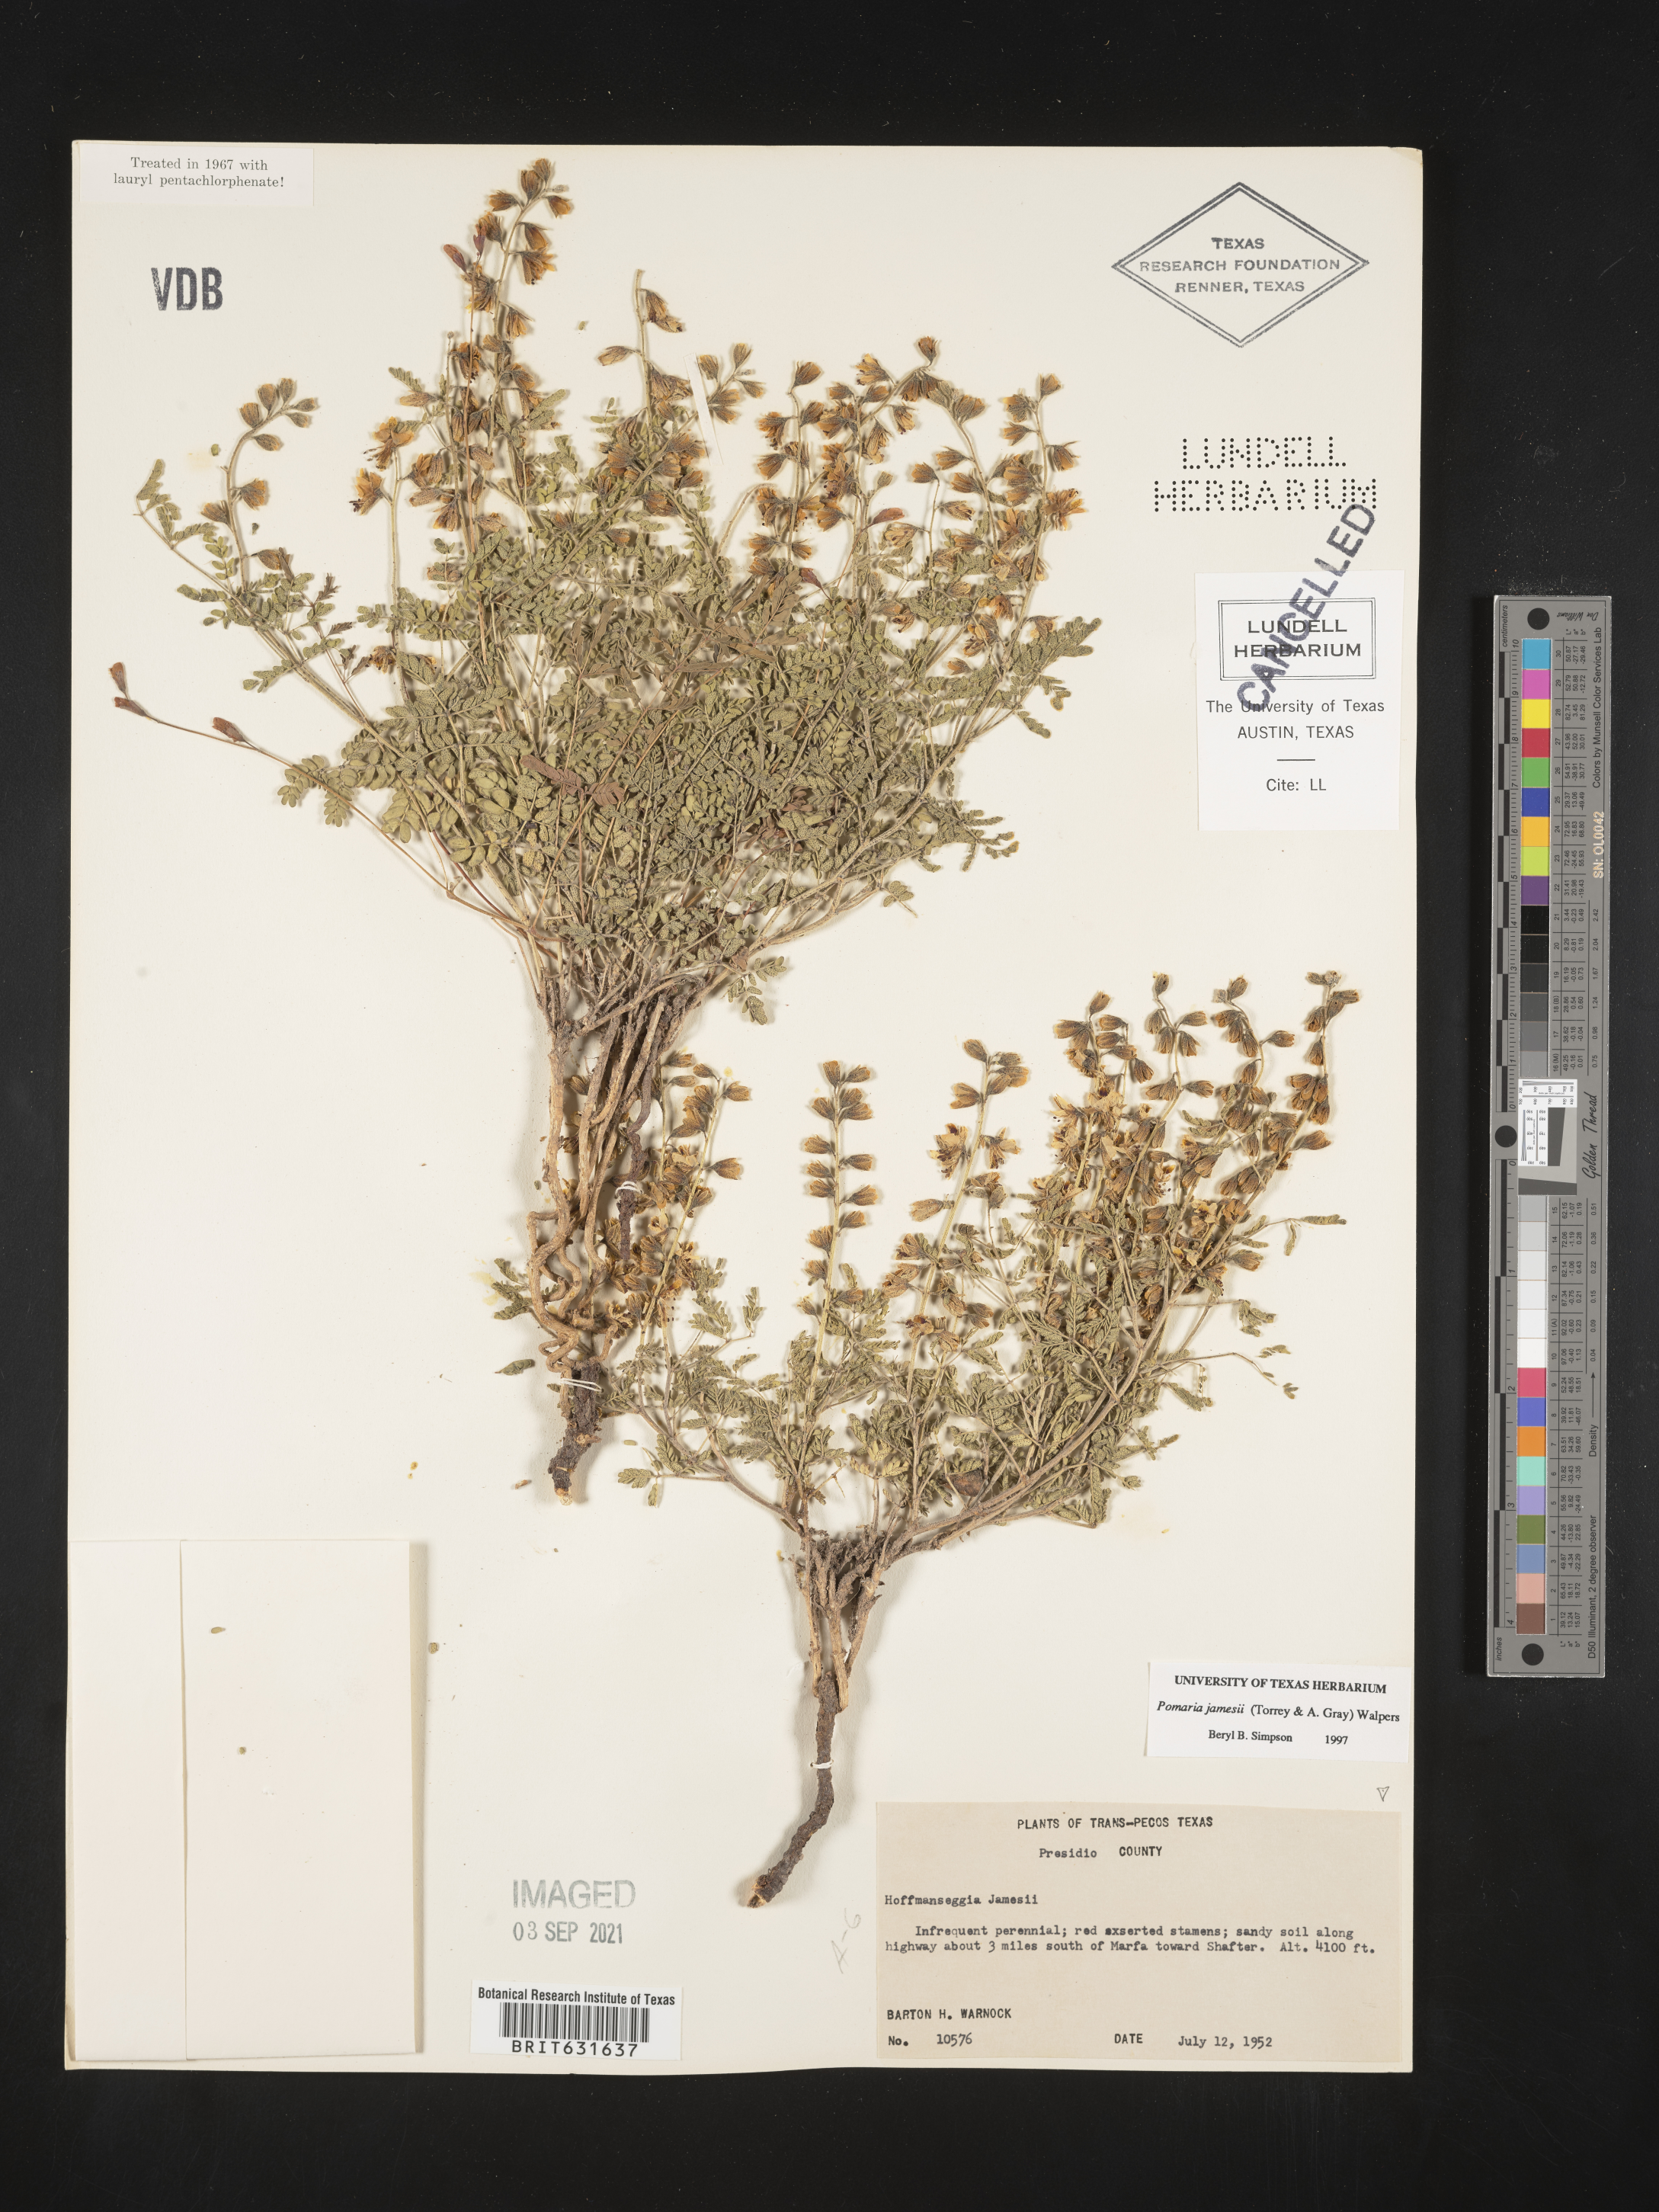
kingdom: Plantae
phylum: Tracheophyta
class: Magnoliopsida
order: Fabales
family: Fabaceae
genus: Pomaria
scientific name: Pomaria jamesii
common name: James' caesalpinia
